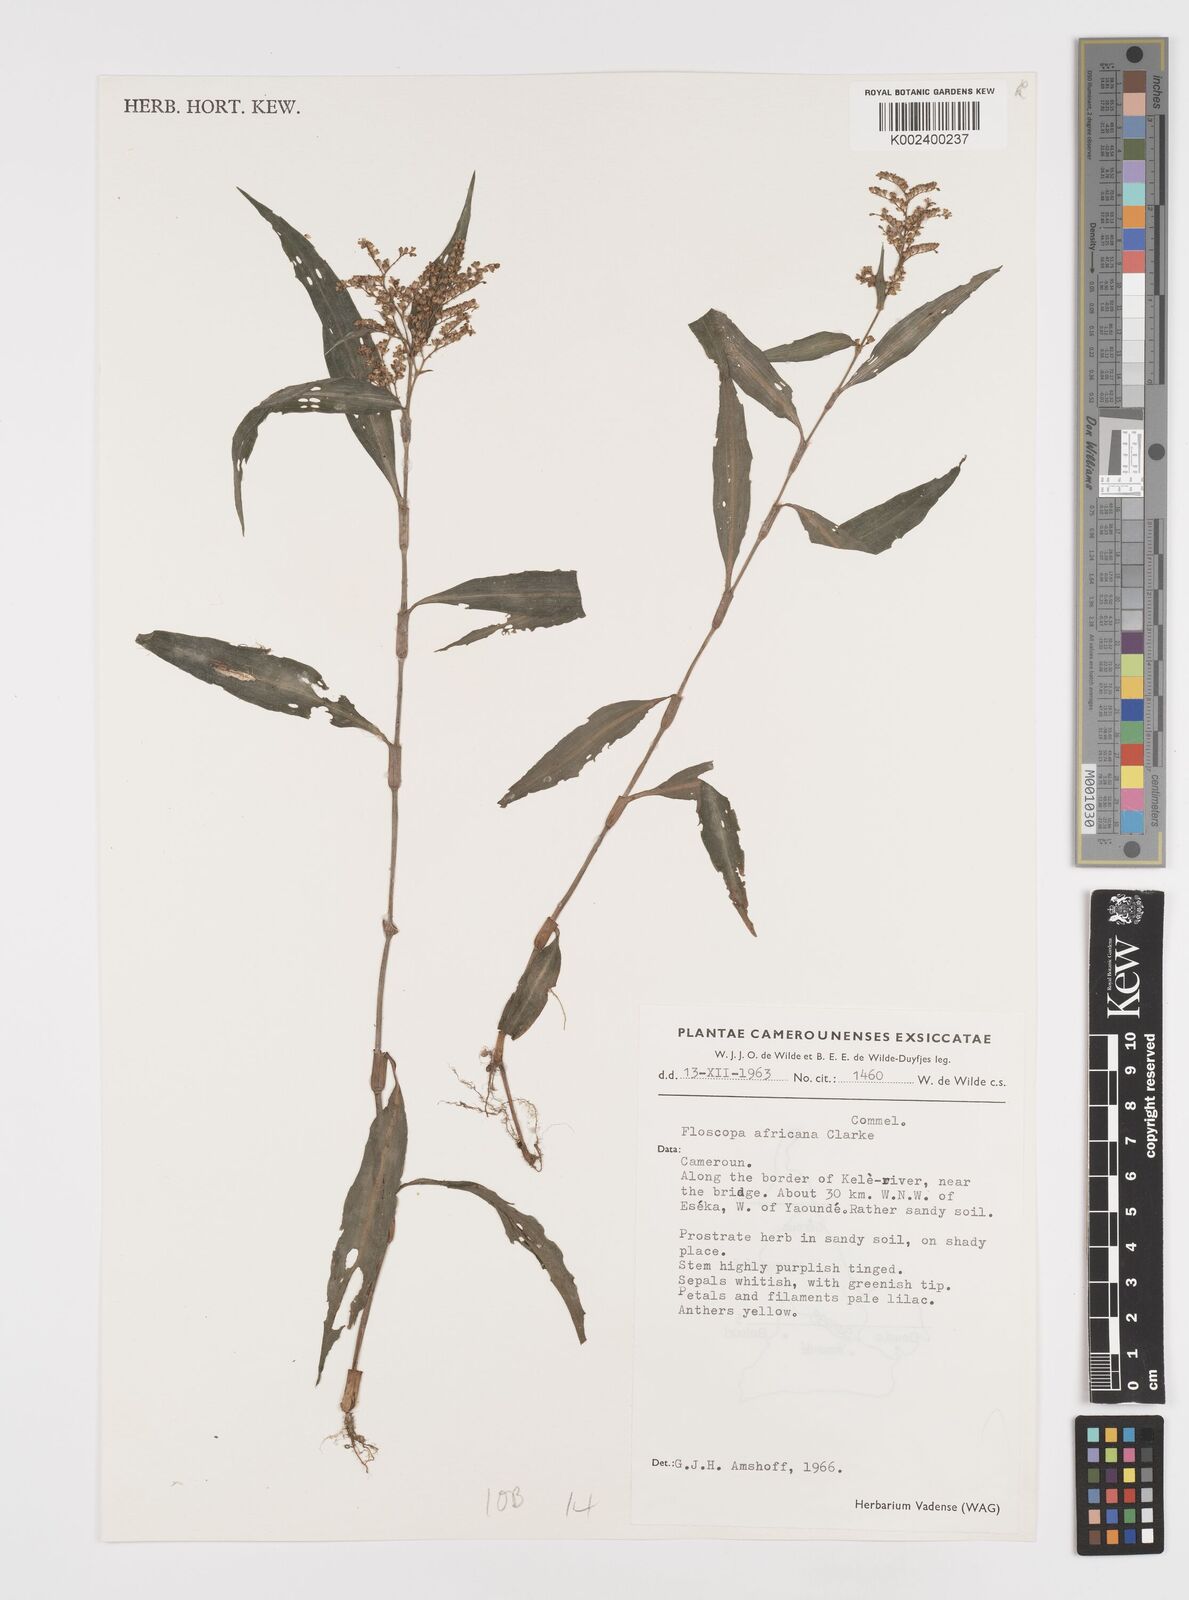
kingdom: Plantae
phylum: Tracheophyta
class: Liliopsida
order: Commelinales
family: Commelinaceae
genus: Floscopa
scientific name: Floscopa africana
